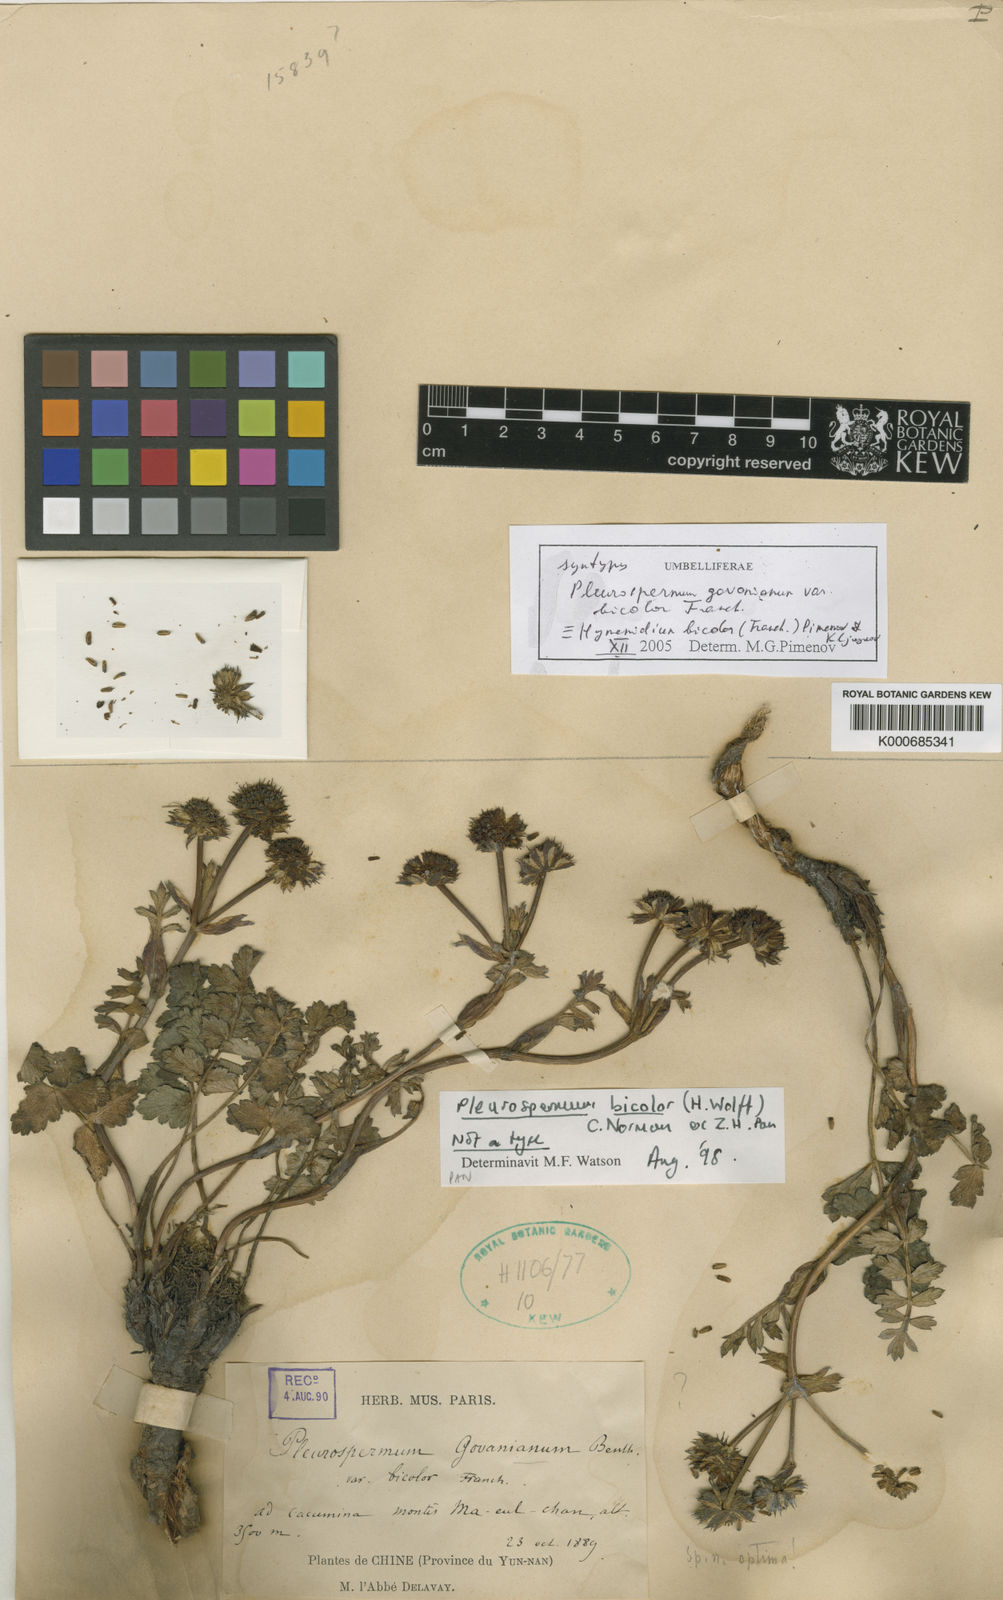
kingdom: Plantae
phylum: Tracheophyta
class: Magnoliopsida
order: Apiales
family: Apiaceae
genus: Pleurospermopsis
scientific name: Pleurospermopsis bicolor
